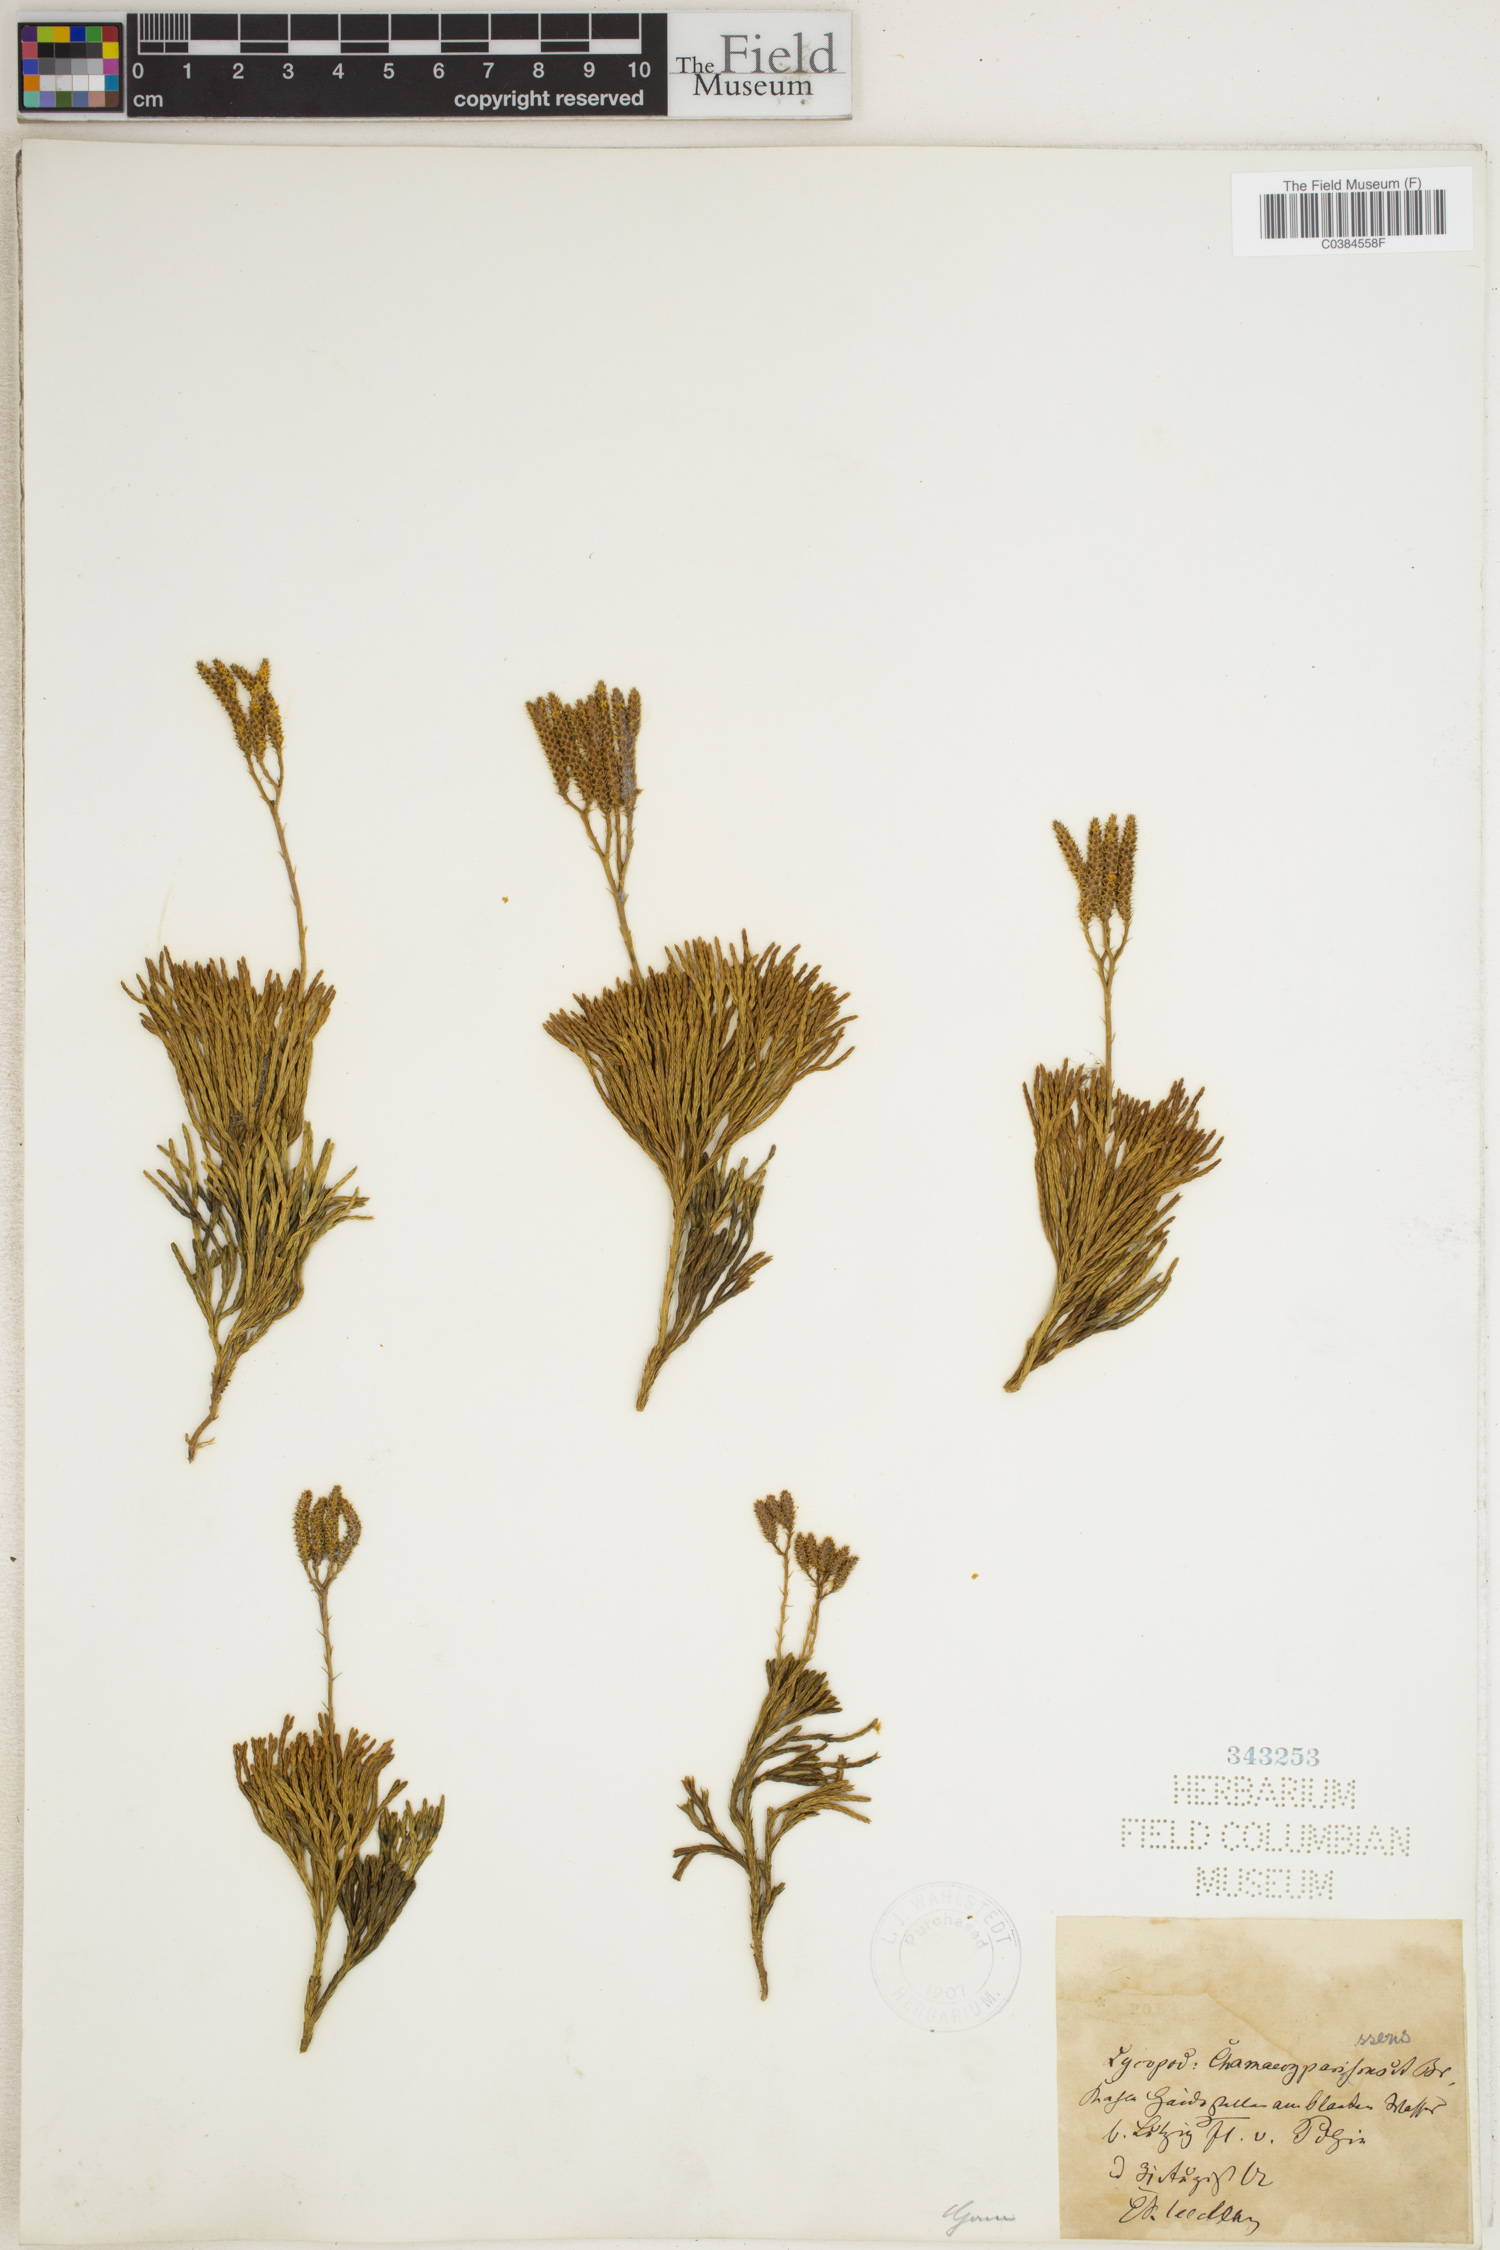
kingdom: Plantae
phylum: Tracheophyta
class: Lycopodiopsida
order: Lycopodiales
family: Lycopodiaceae
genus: Diphasiastrum
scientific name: Diphasiastrum tristachyum
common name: Blue ground-cedar
